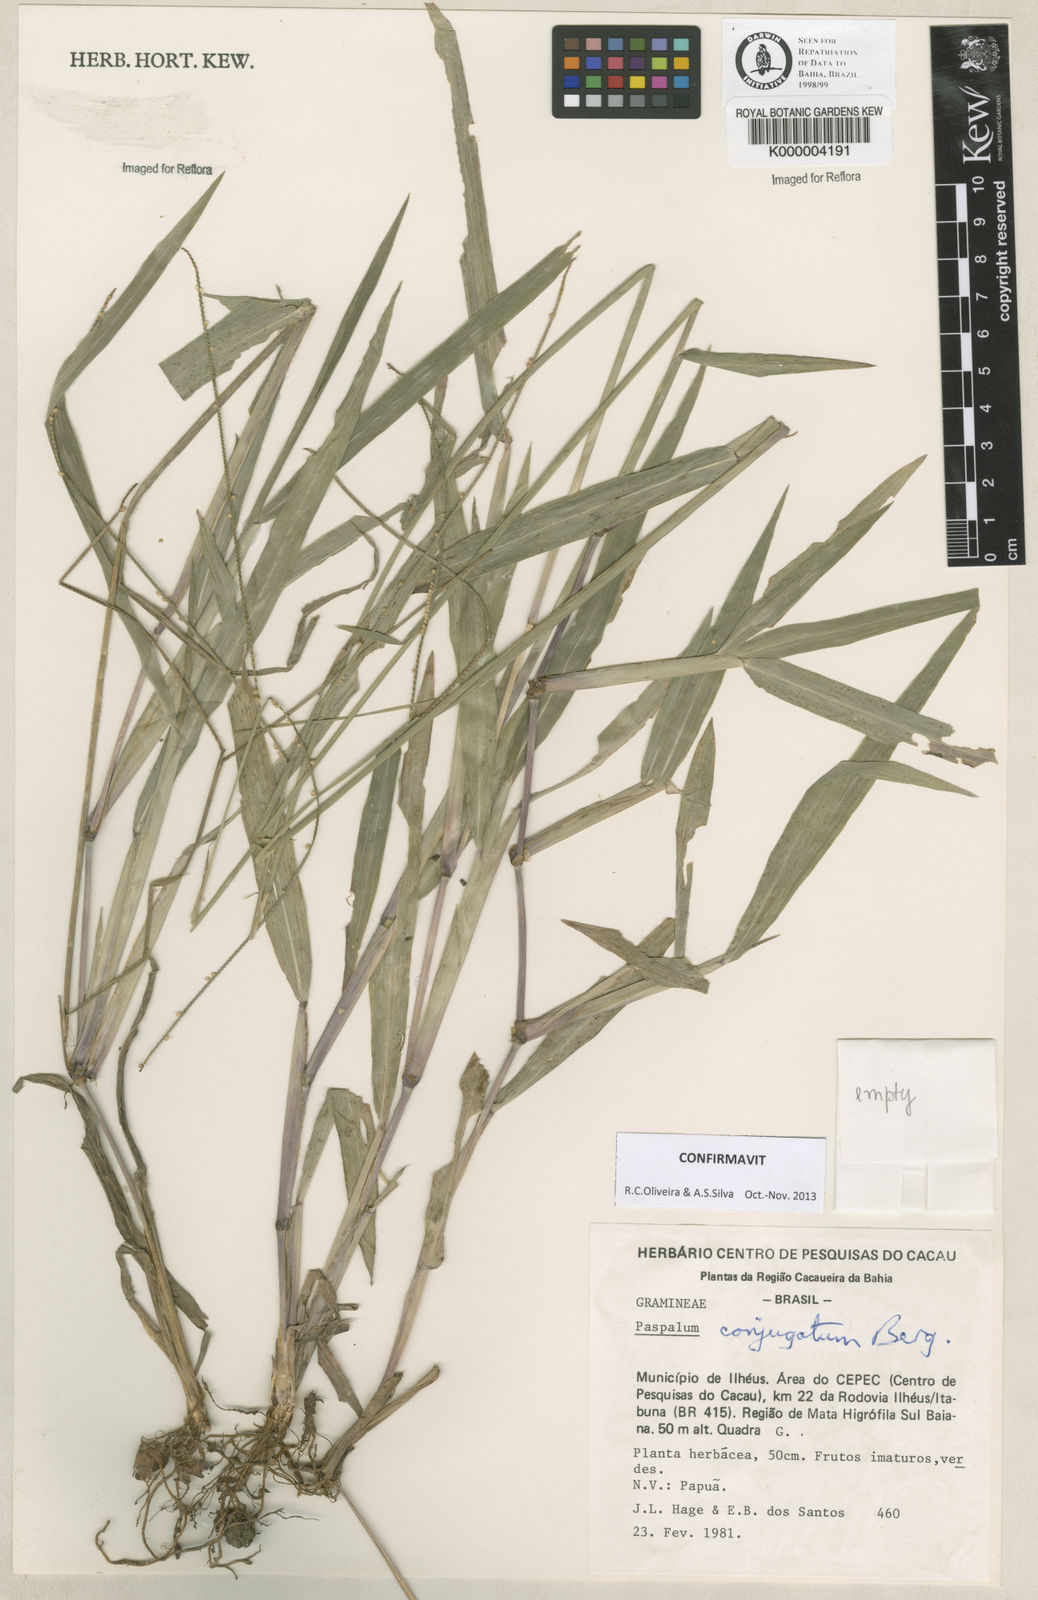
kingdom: Plantae
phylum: Tracheophyta
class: Liliopsida
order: Poales
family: Poaceae
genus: Paspalum
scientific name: Paspalum conjugatum
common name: Hilograss
